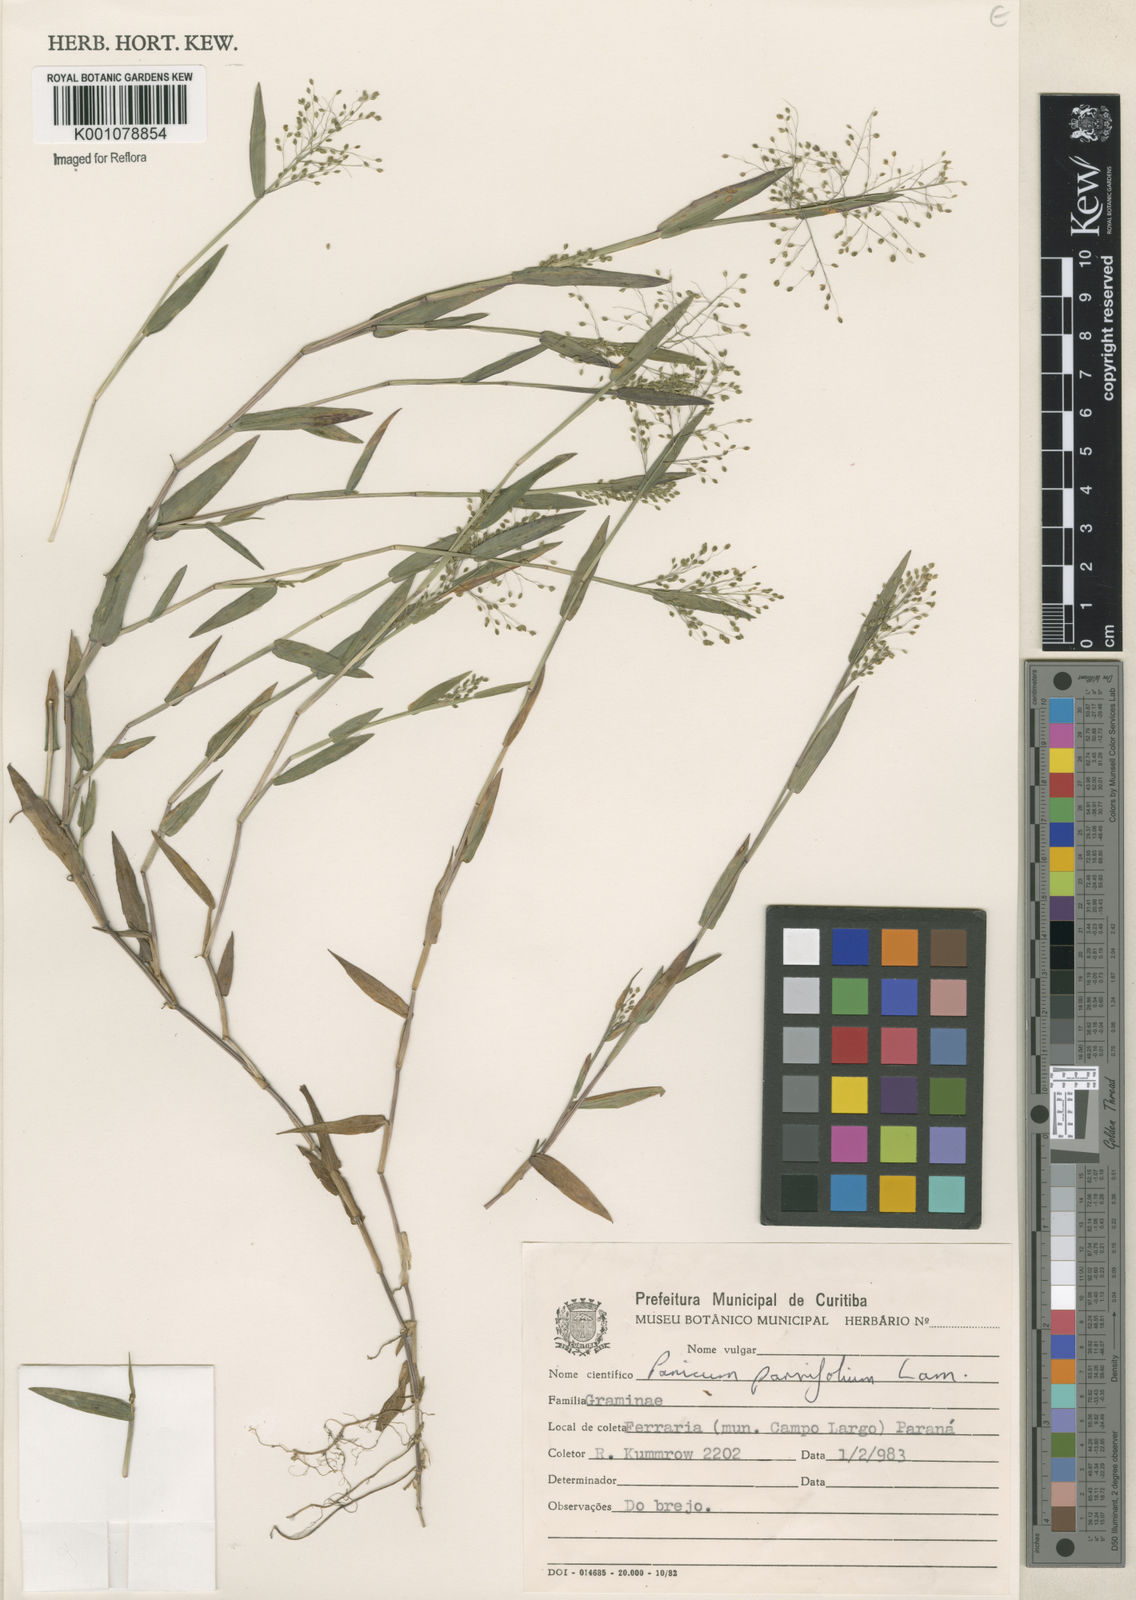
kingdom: Plantae
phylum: Tracheophyta
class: Liliopsida
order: Poales
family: Poaceae
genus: Trichanthecium
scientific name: Trichanthecium parvifolium
